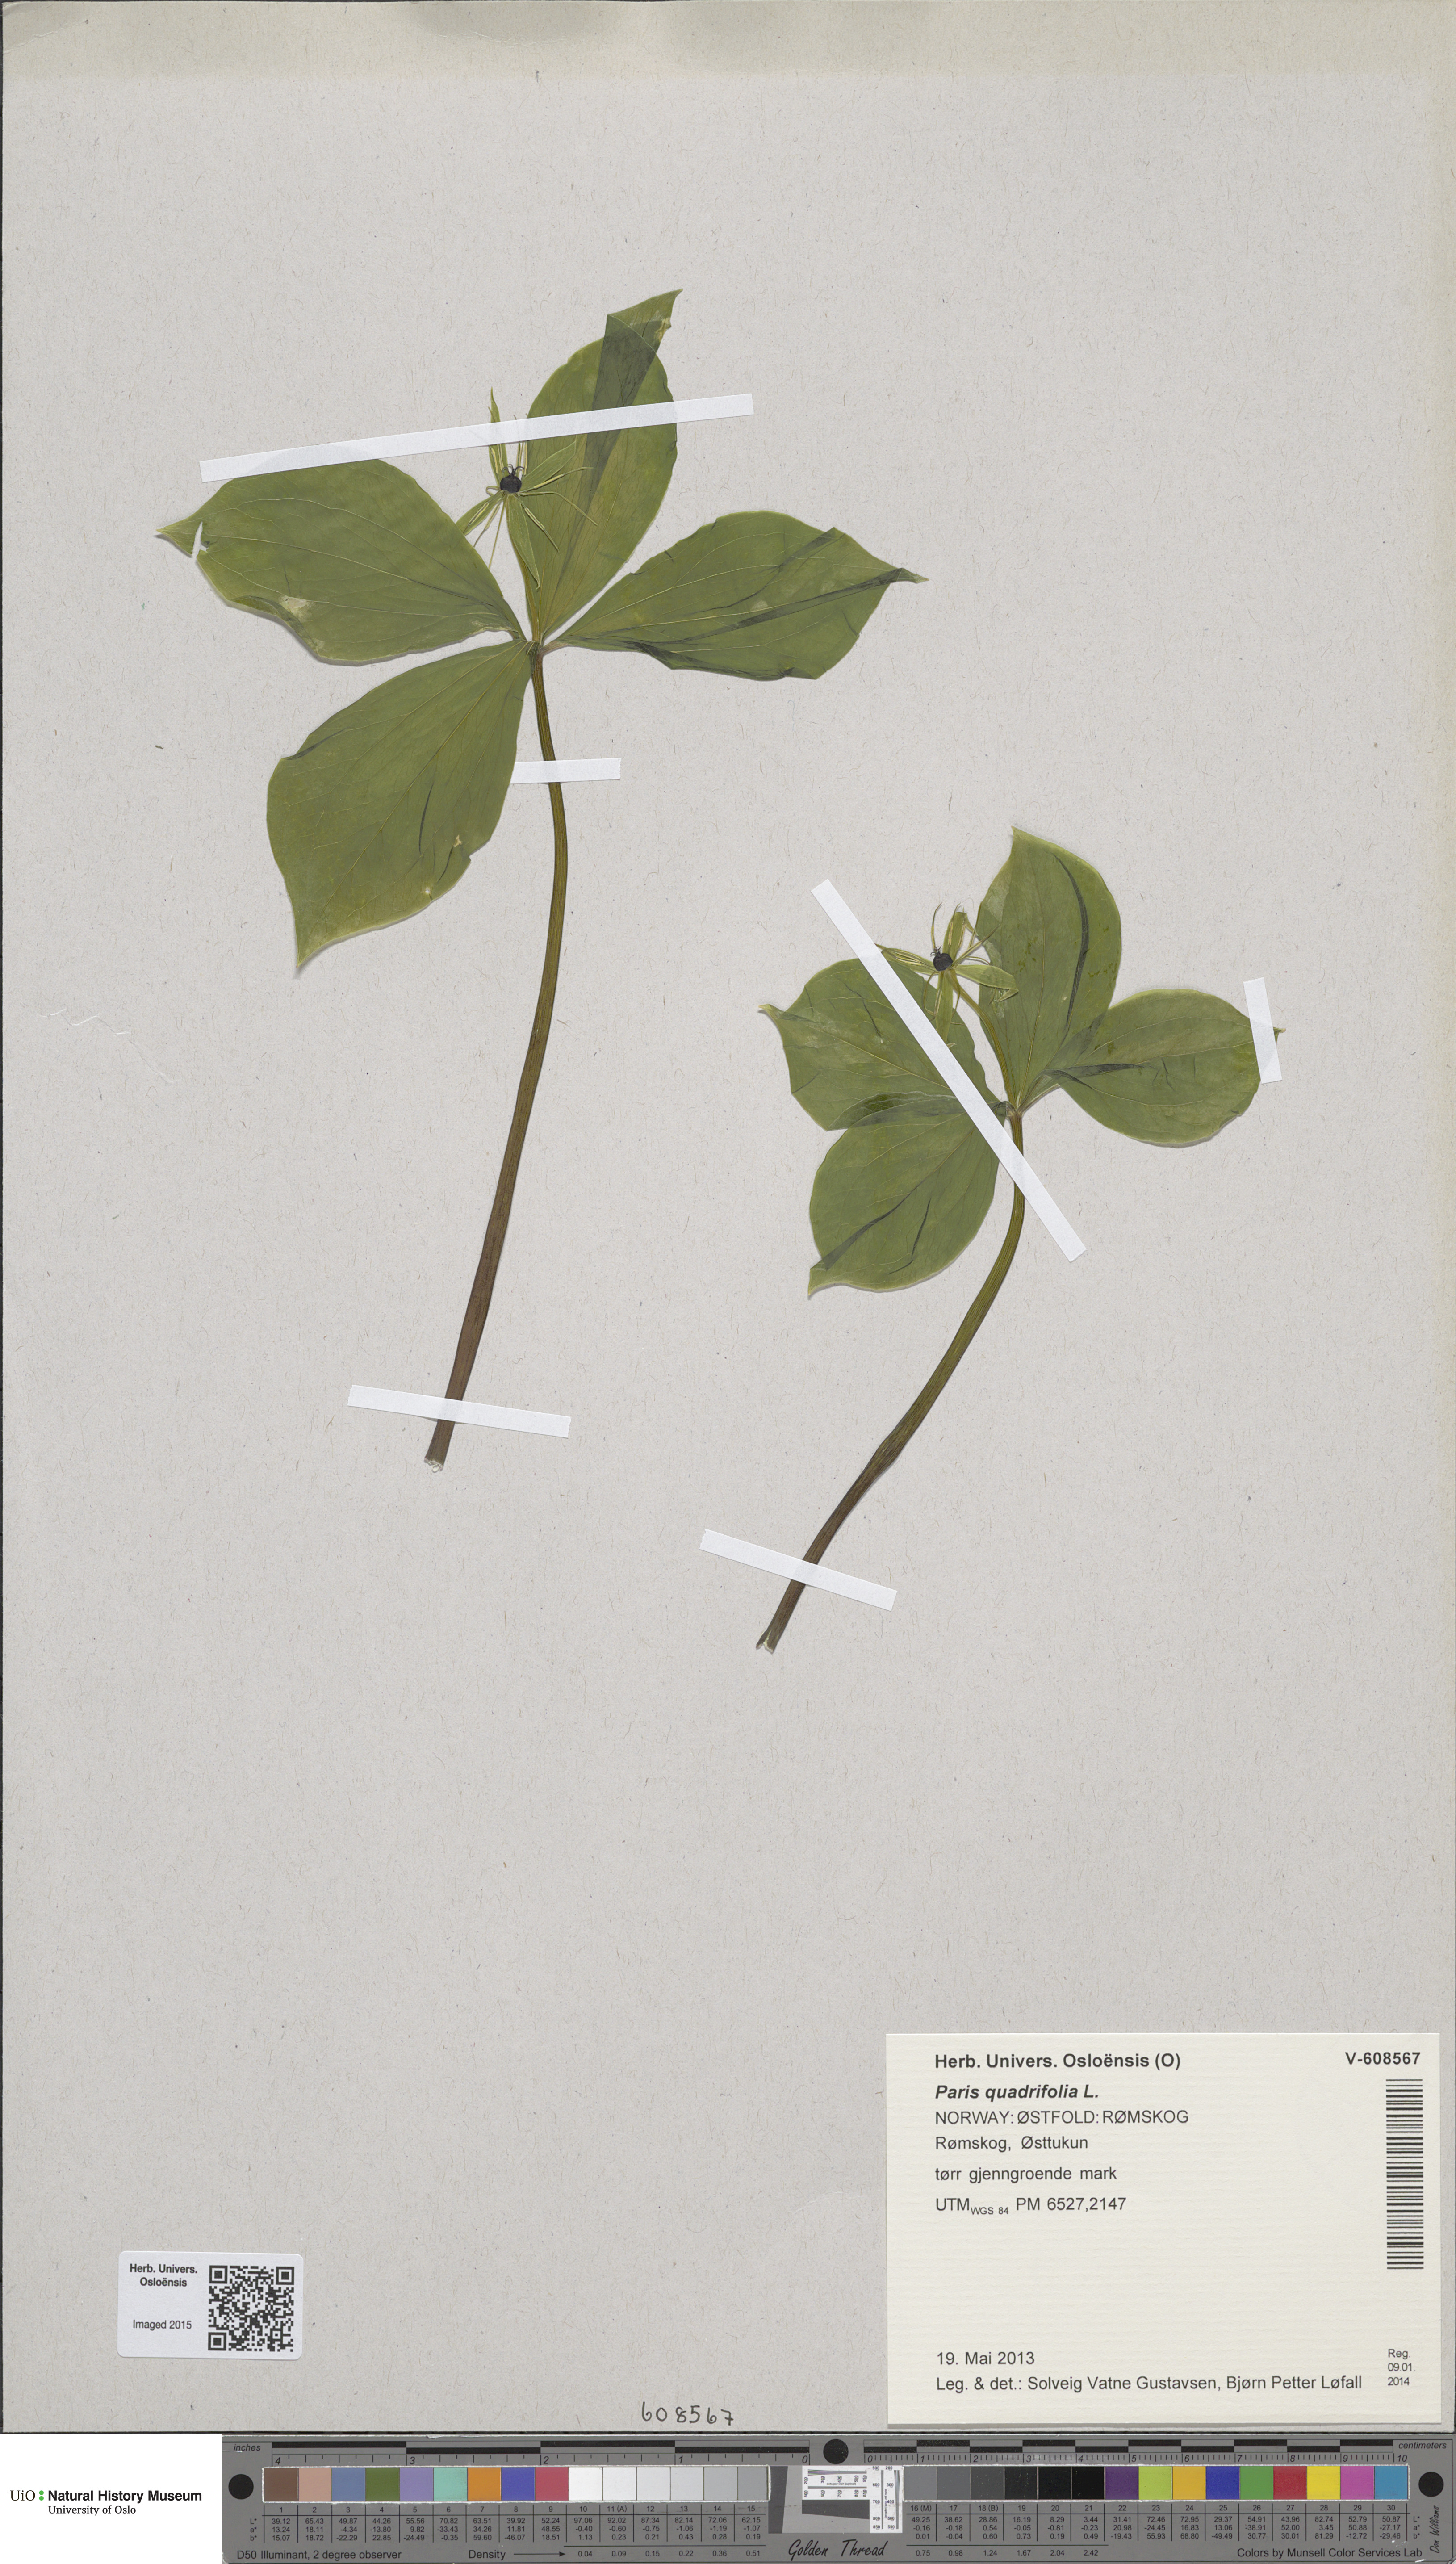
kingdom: Plantae
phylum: Tracheophyta
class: Liliopsida
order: Liliales
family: Melanthiaceae
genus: Paris
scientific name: Paris quadrifolia
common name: Herb-paris
